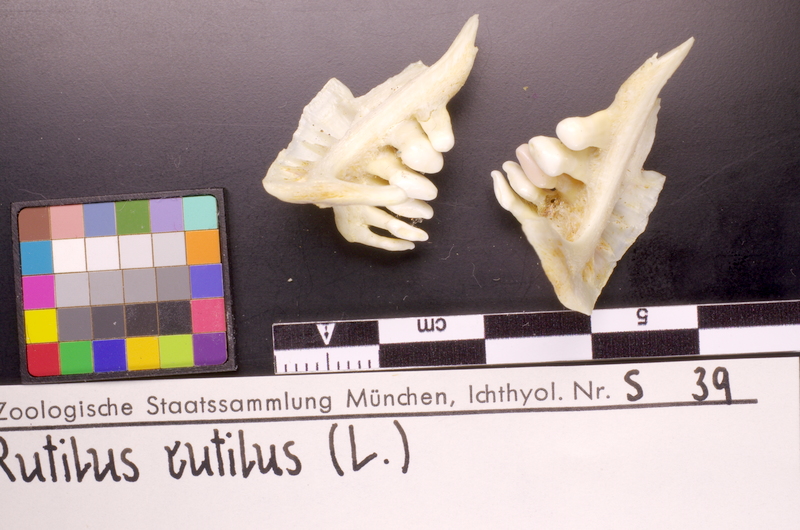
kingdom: Animalia
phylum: Chordata
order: Cypriniformes
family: Cyprinidae
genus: Rutilus
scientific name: Rutilus rutilus
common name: Roach
